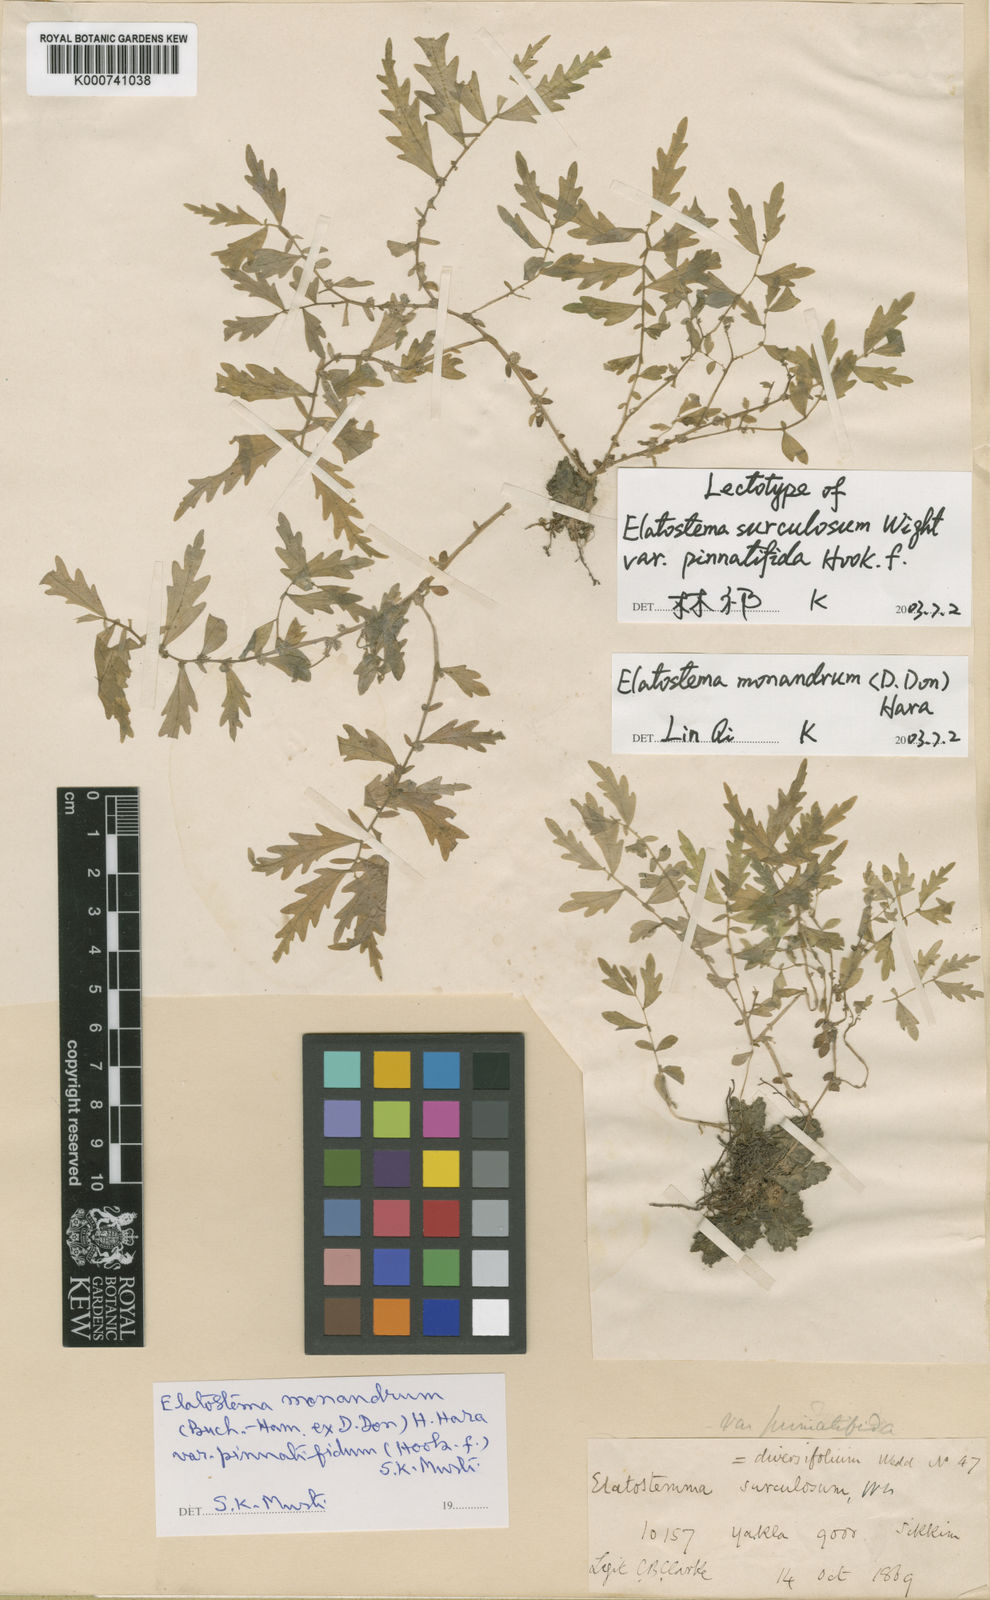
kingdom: Plantae
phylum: Tracheophyta
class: Magnoliopsida
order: Rosales
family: Urticaceae
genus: Elatostema
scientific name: Elatostema monandrum
